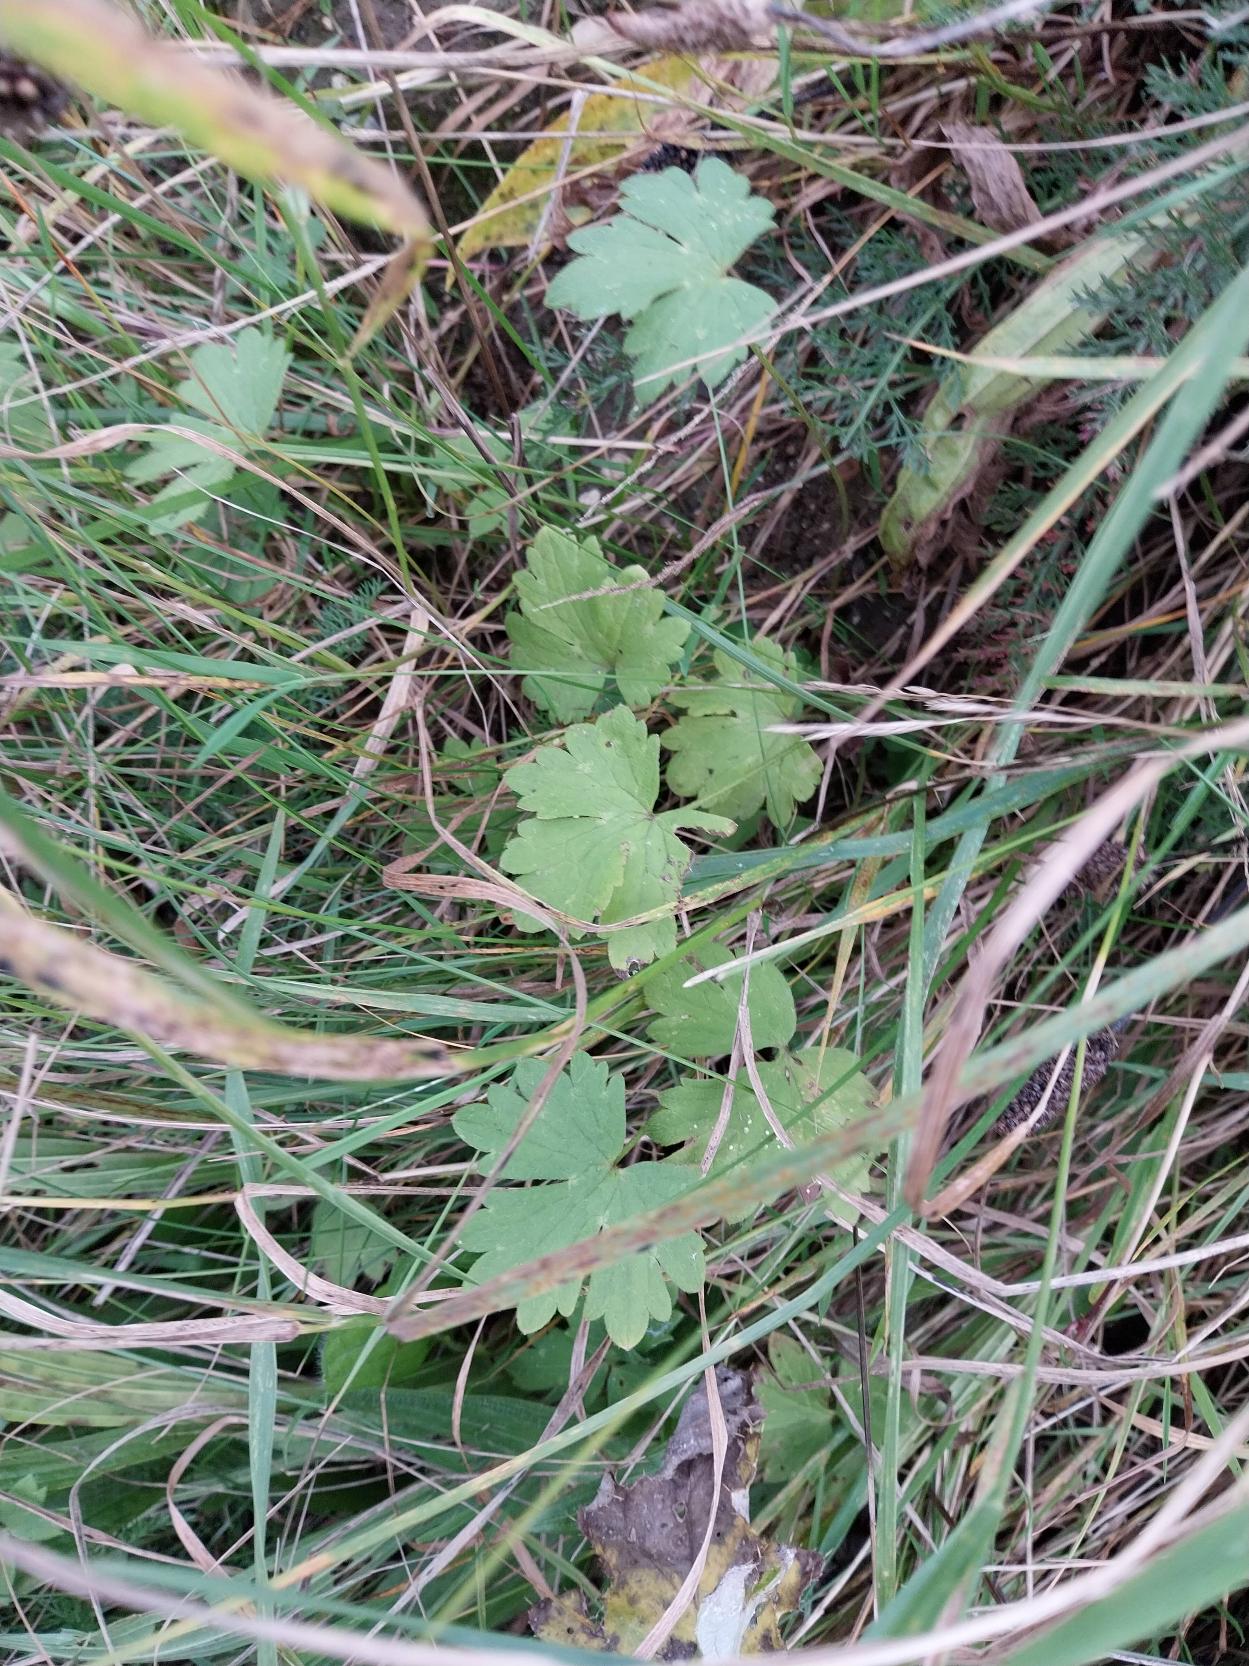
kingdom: Plantae
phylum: Tracheophyta
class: Magnoliopsida
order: Ranunculales
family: Ranunculaceae
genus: Ranunculus
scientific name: Ranunculus acris
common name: Bidende ranunkel
